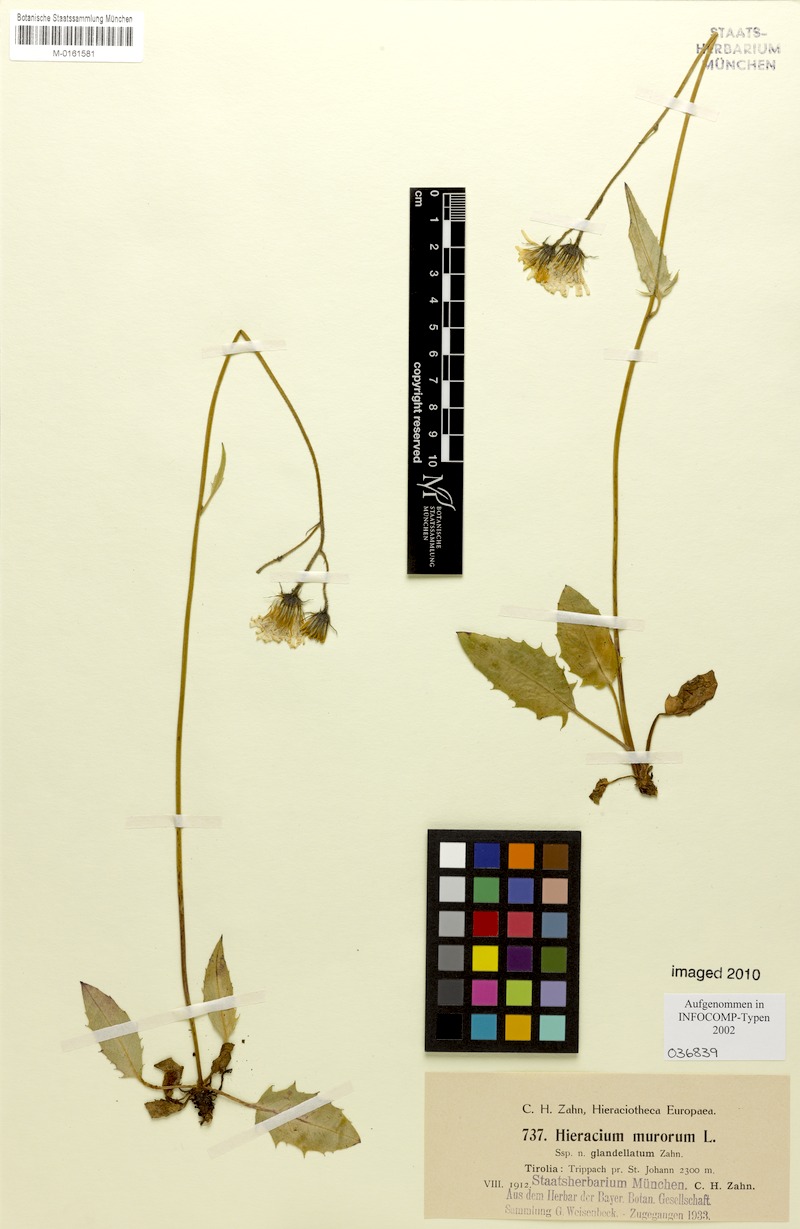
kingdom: Plantae
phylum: Tracheophyta
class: Magnoliopsida
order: Asterales
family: Asteraceae
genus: Hieracium
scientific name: Hieracium murorum
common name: Wall hawkweed
